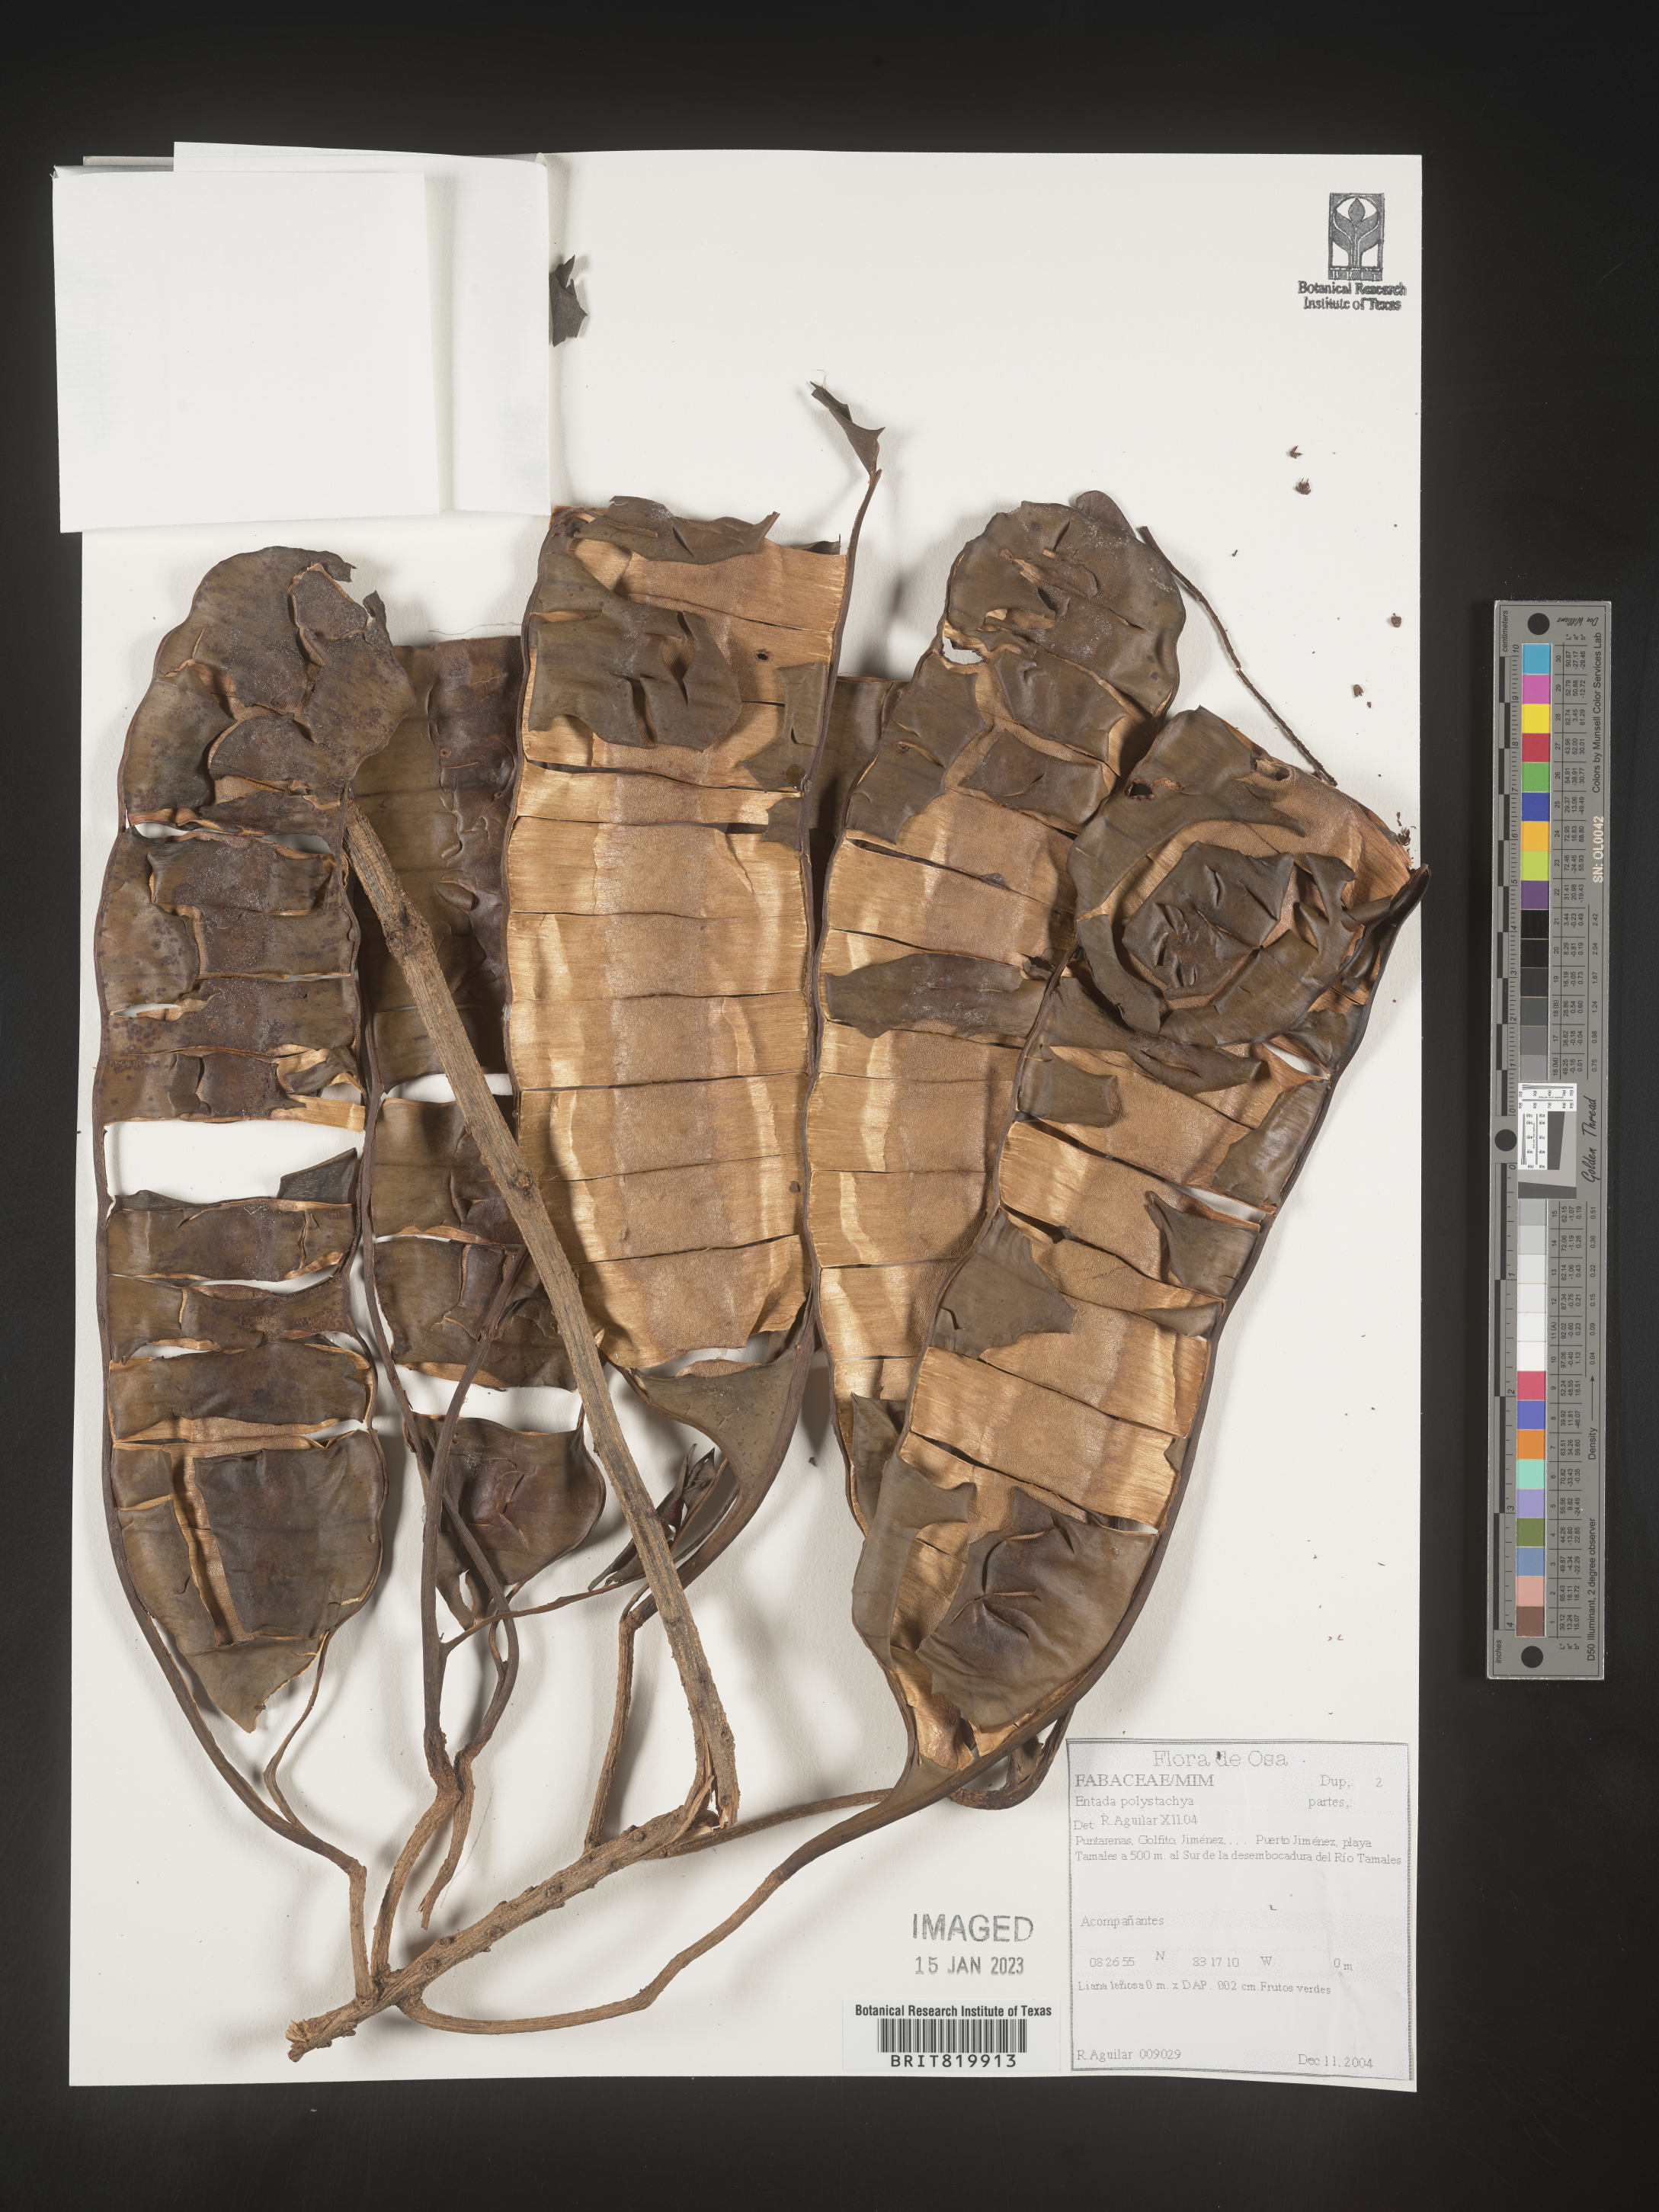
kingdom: Plantae
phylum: Tracheophyta
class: Magnoliopsida
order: Fabales
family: Fabaceae
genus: Entada
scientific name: Entada
